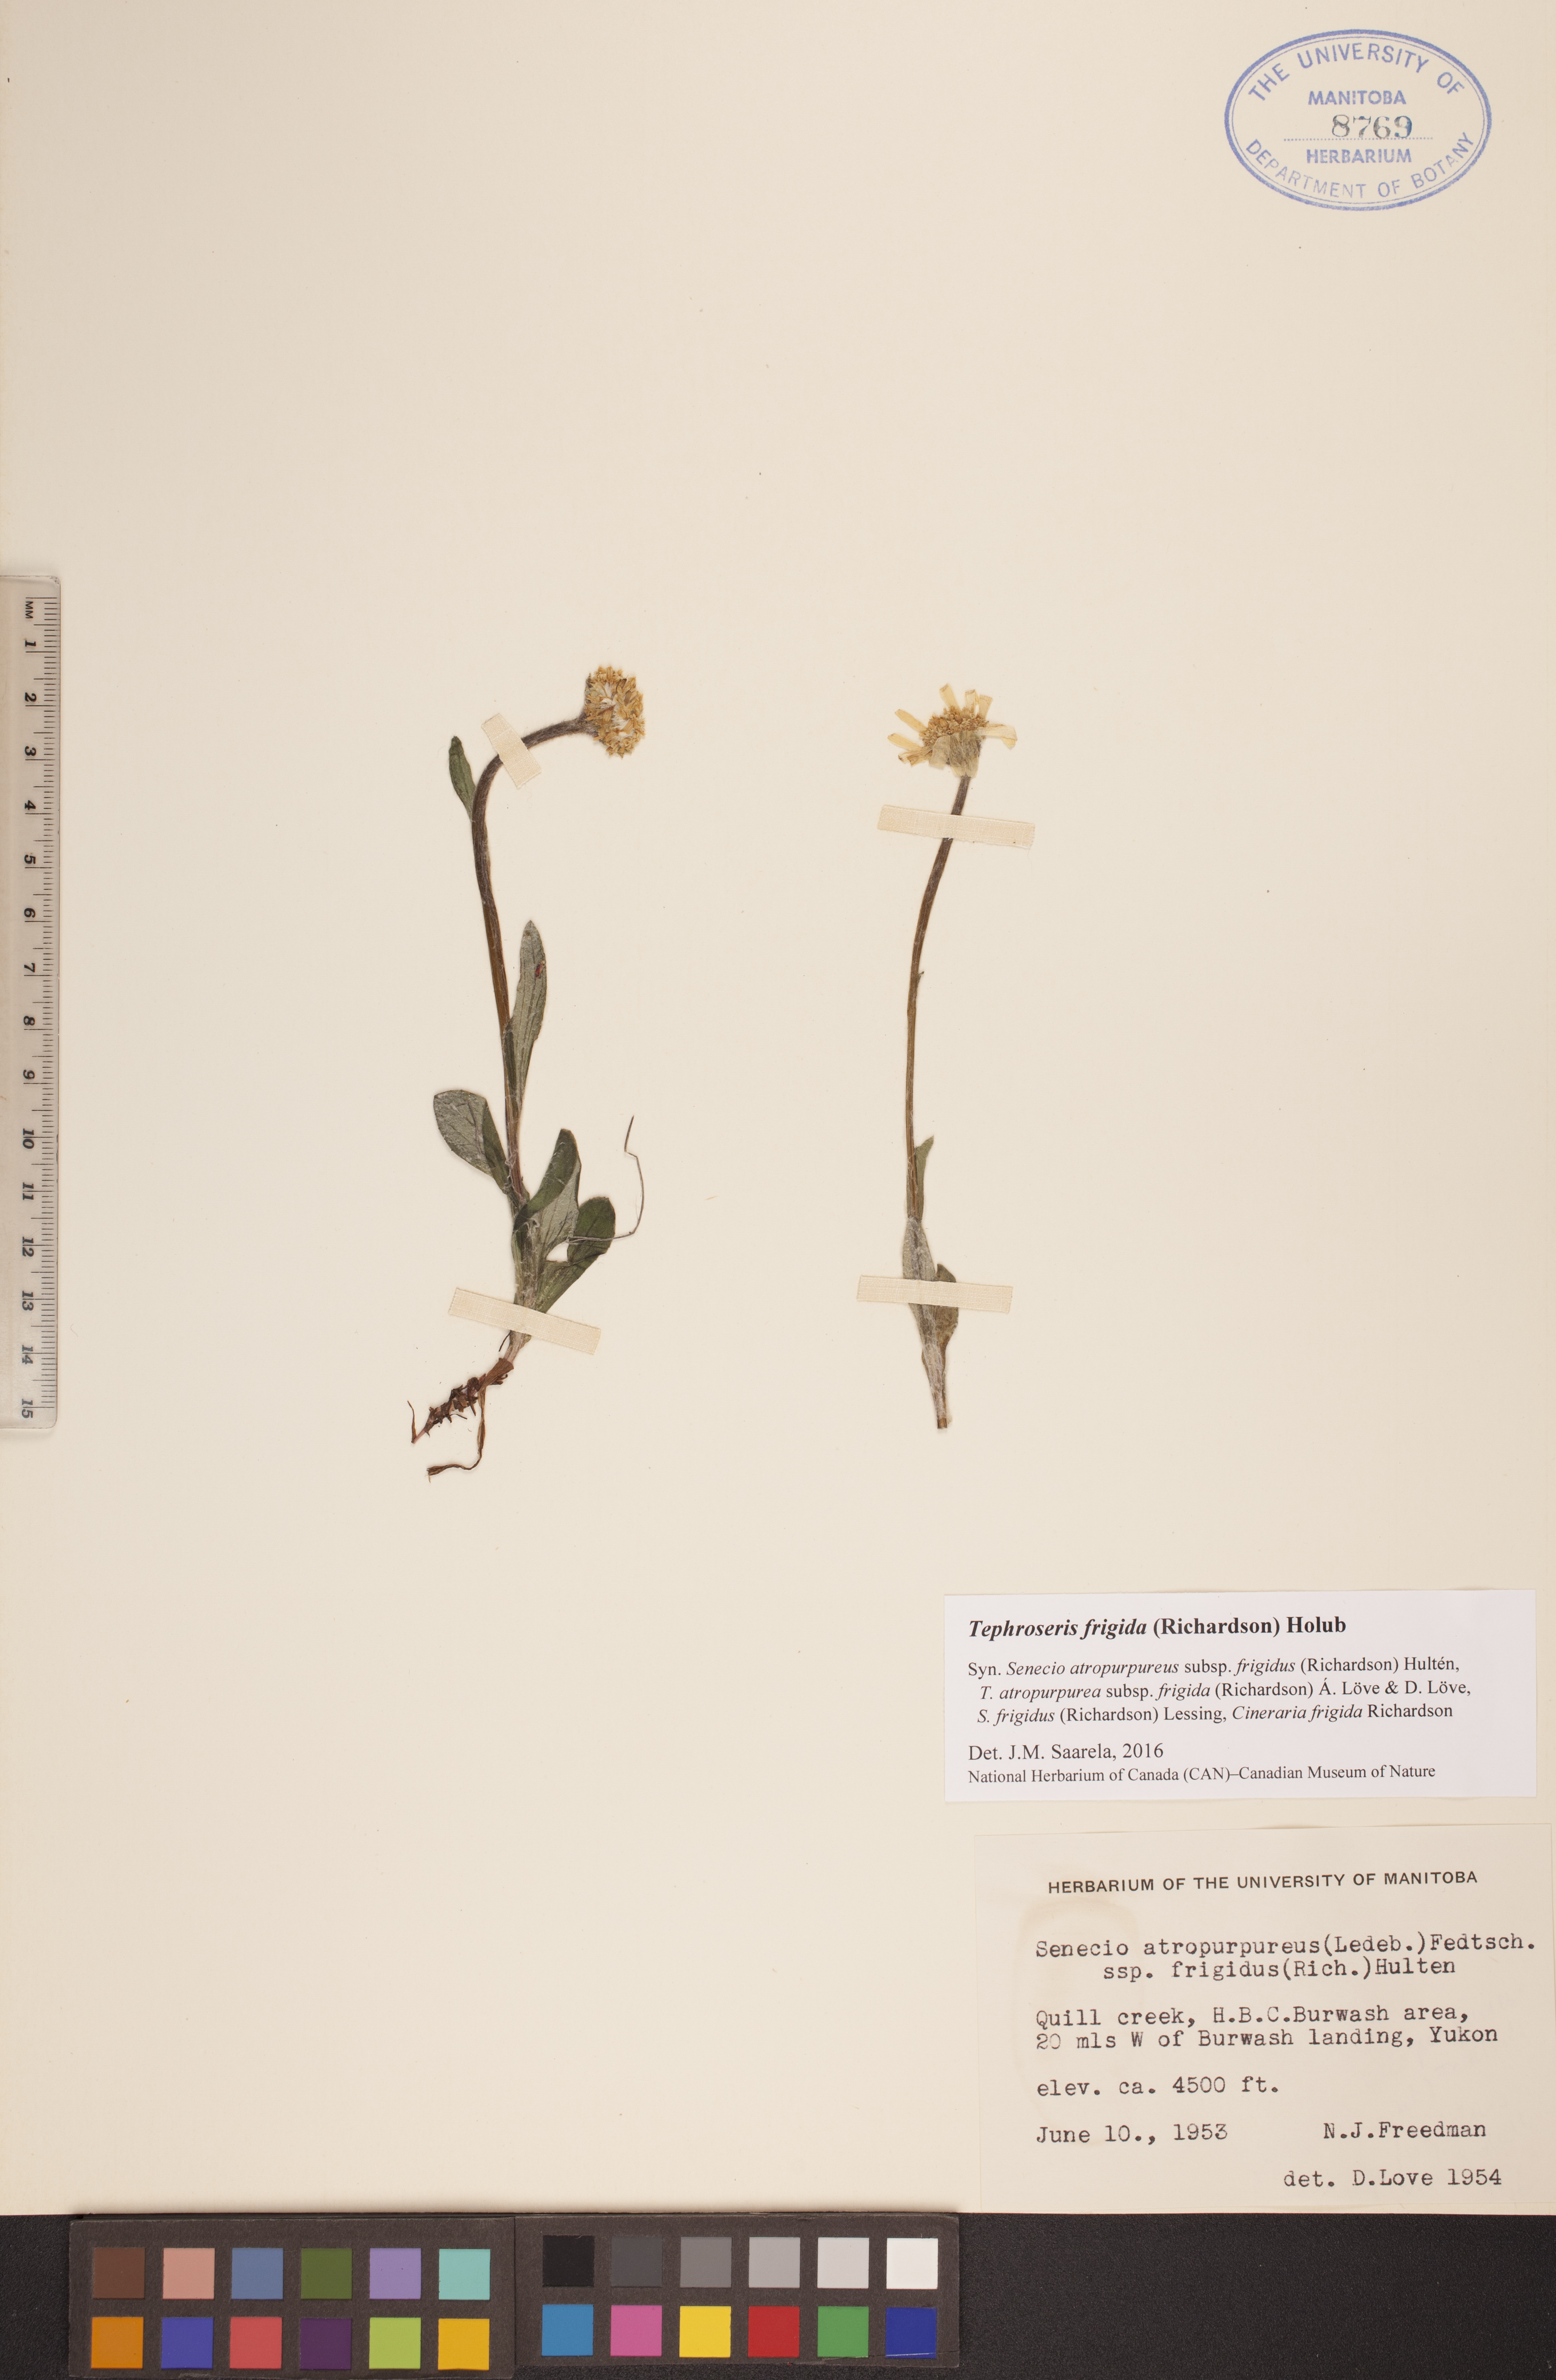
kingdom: Plantae
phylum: Tracheophyta
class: Magnoliopsida
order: Asterales
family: Asteraceae
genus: Tephroseris
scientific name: Tephroseris frigida
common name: Arctic groundsel
